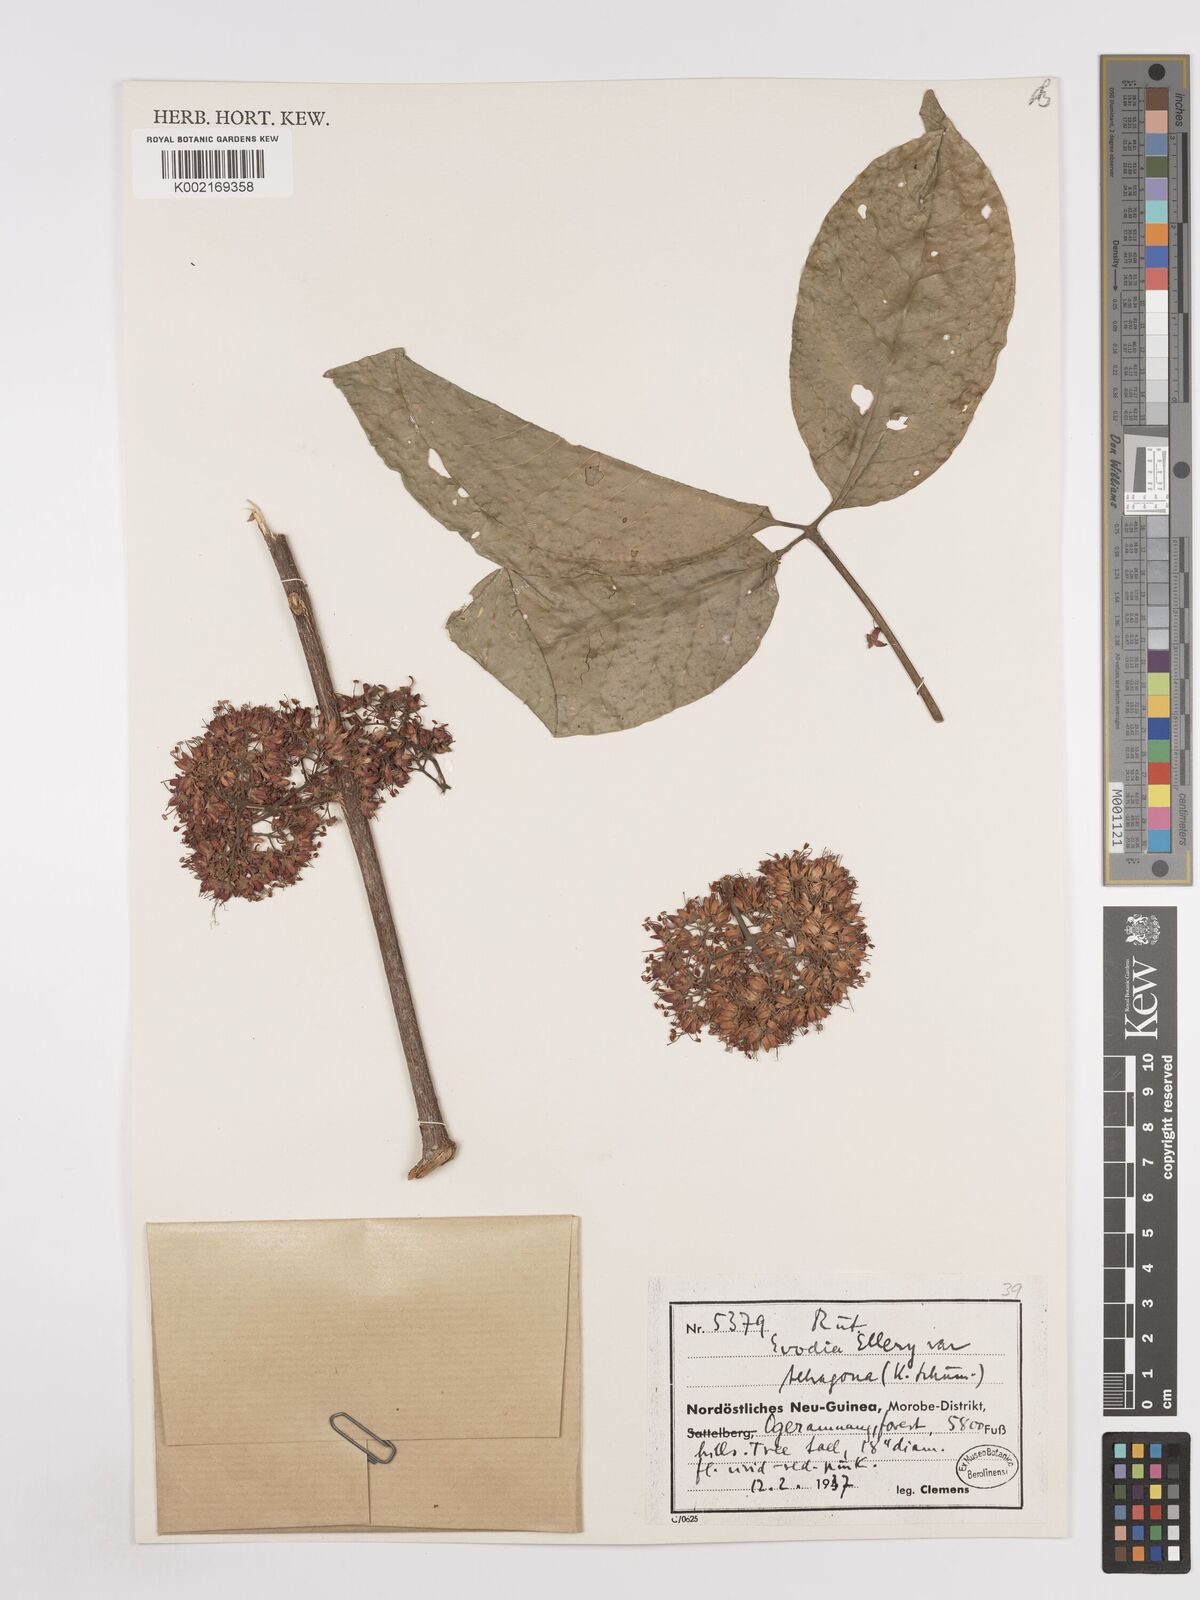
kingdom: Plantae
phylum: Tracheophyta
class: Magnoliopsida
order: Sapindales
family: Rutaceae
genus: Melicope
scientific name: Melicope elleryana
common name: Pink euodia
